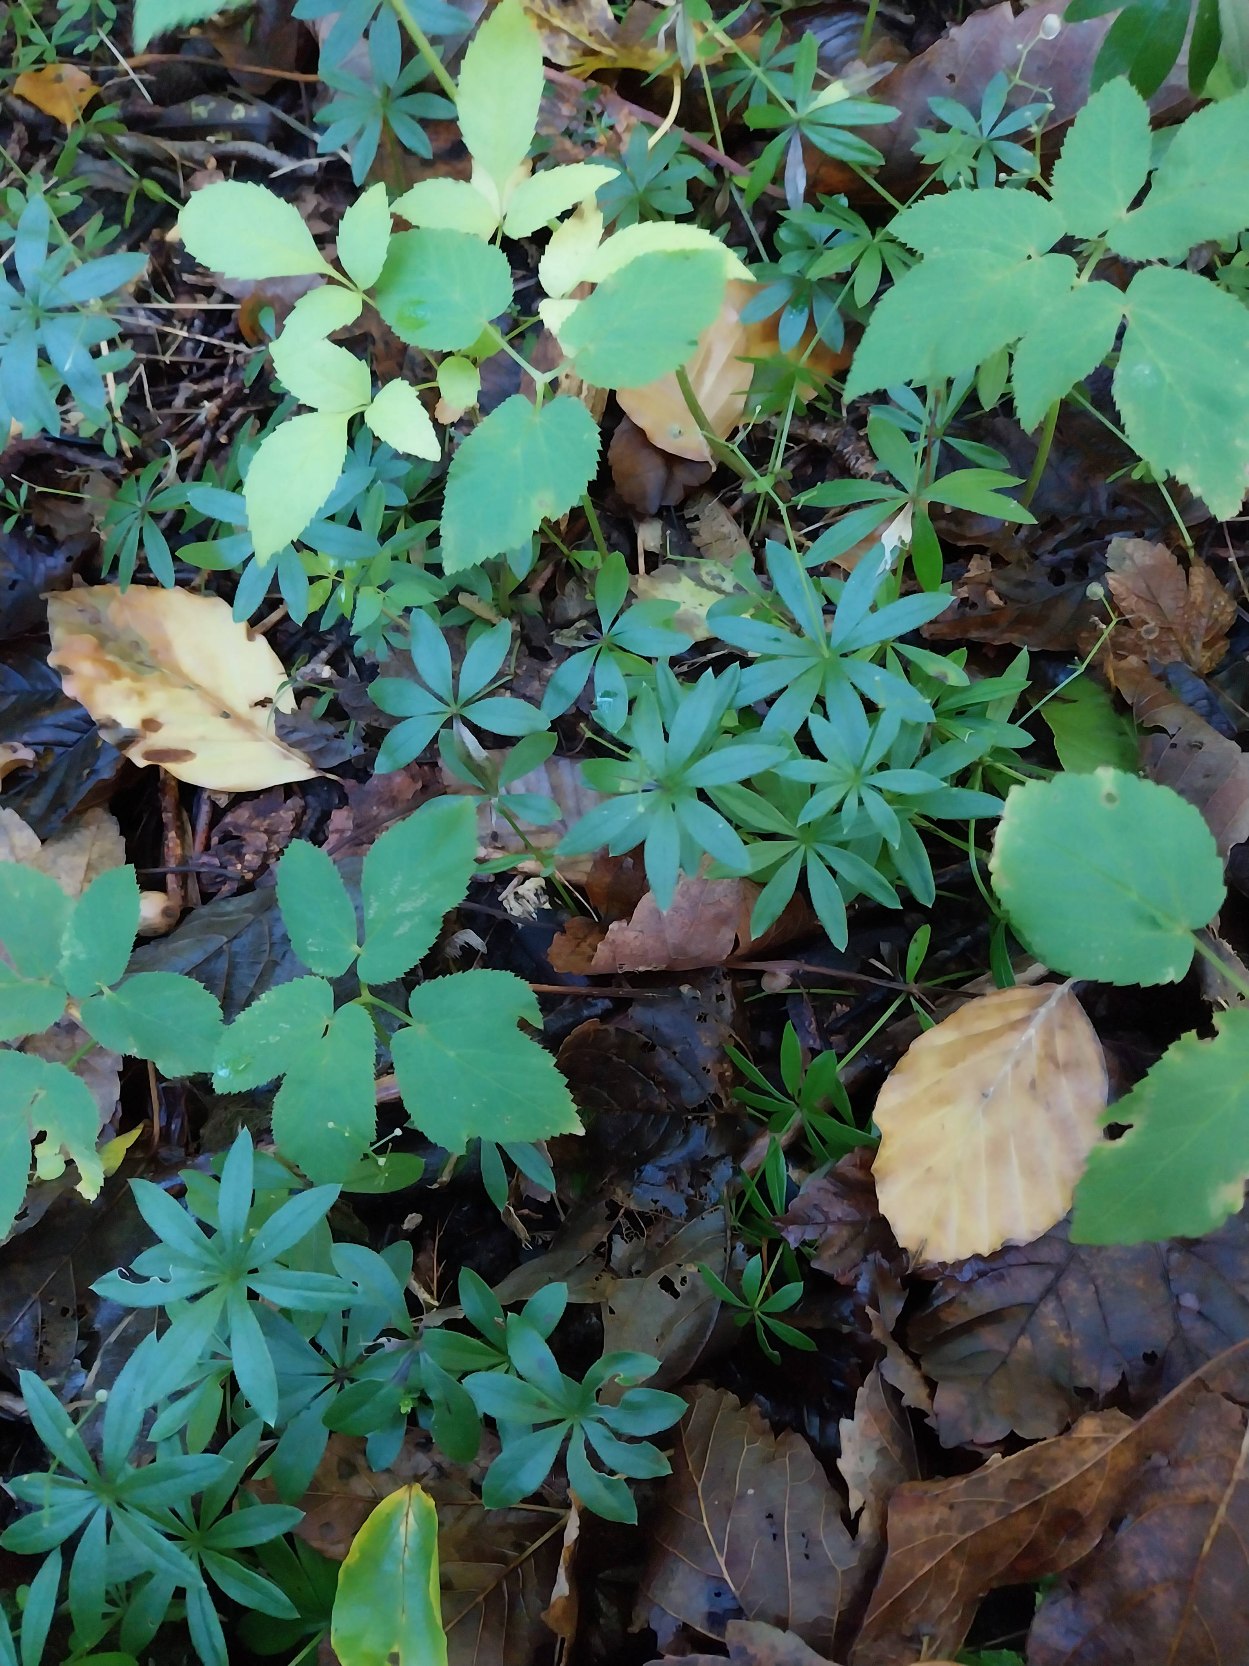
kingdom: Plantae
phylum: Tracheophyta
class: Magnoliopsida
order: Gentianales
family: Rubiaceae
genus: Galium
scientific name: Galium odoratum
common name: Skovmærke
